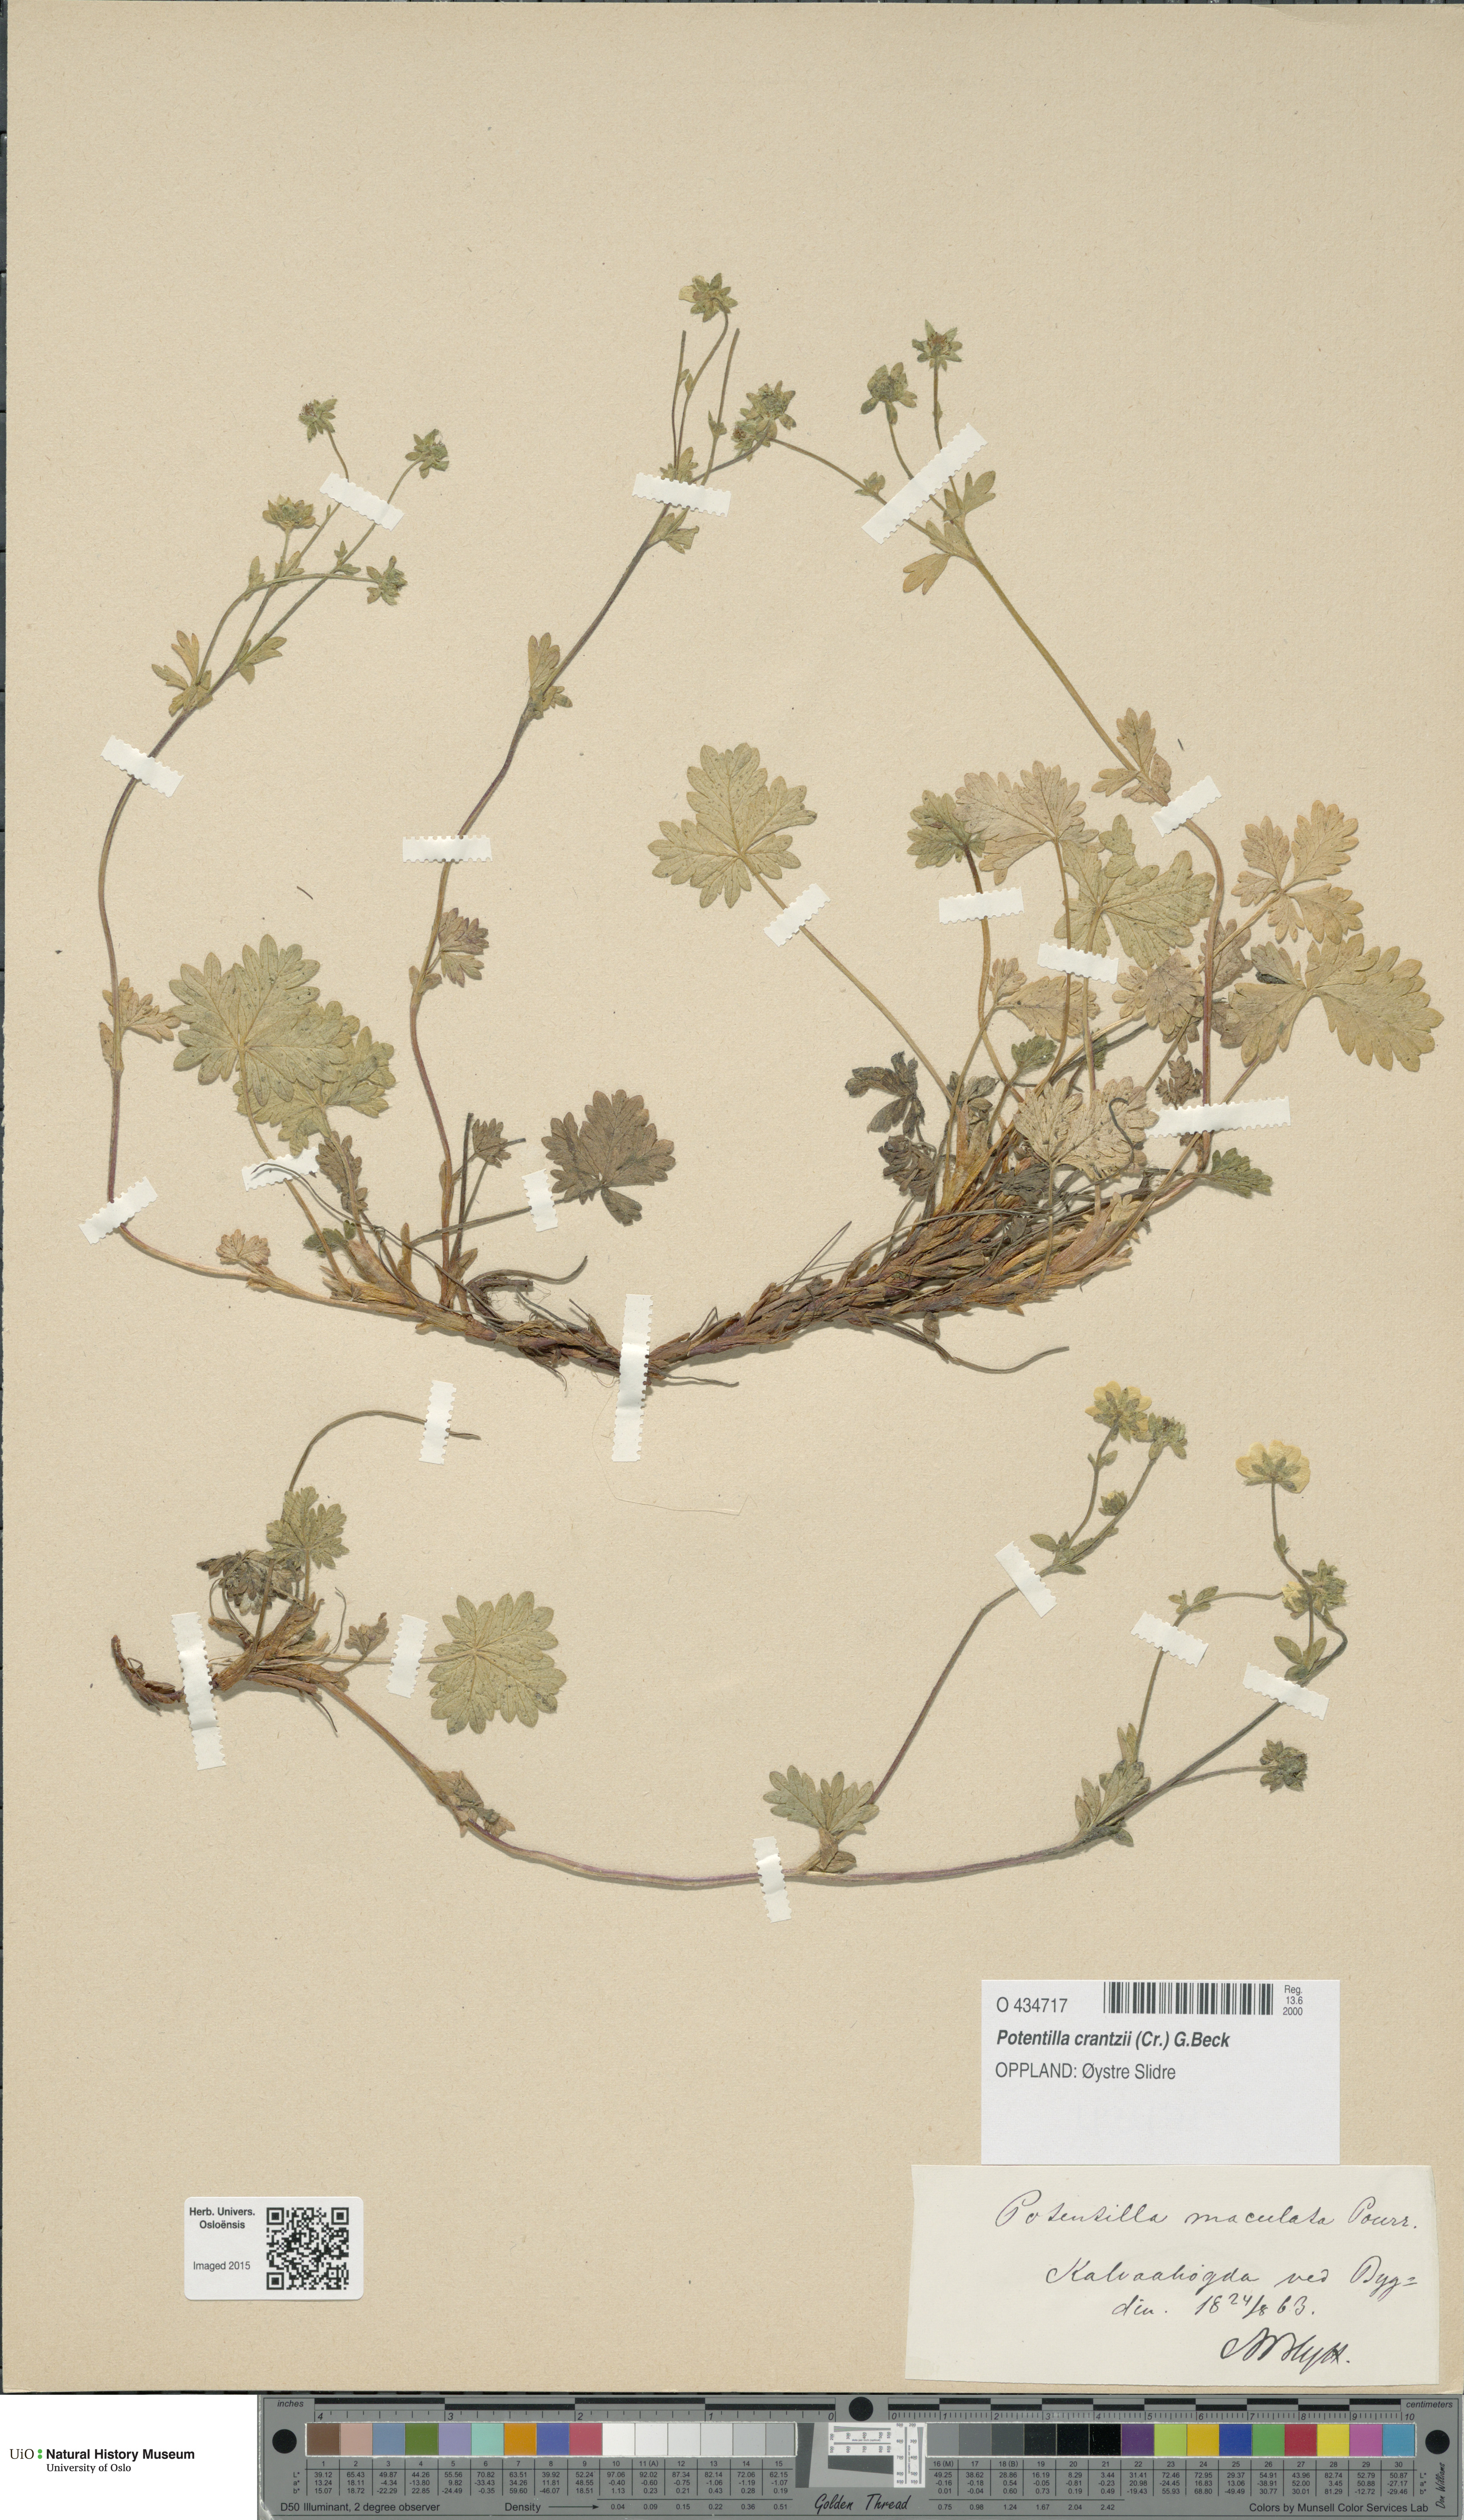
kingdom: Plantae
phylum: Tracheophyta
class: Magnoliopsida
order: Rosales
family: Rosaceae
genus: Potentilla
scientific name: Potentilla crantzii
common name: Alpine cinquefoil
